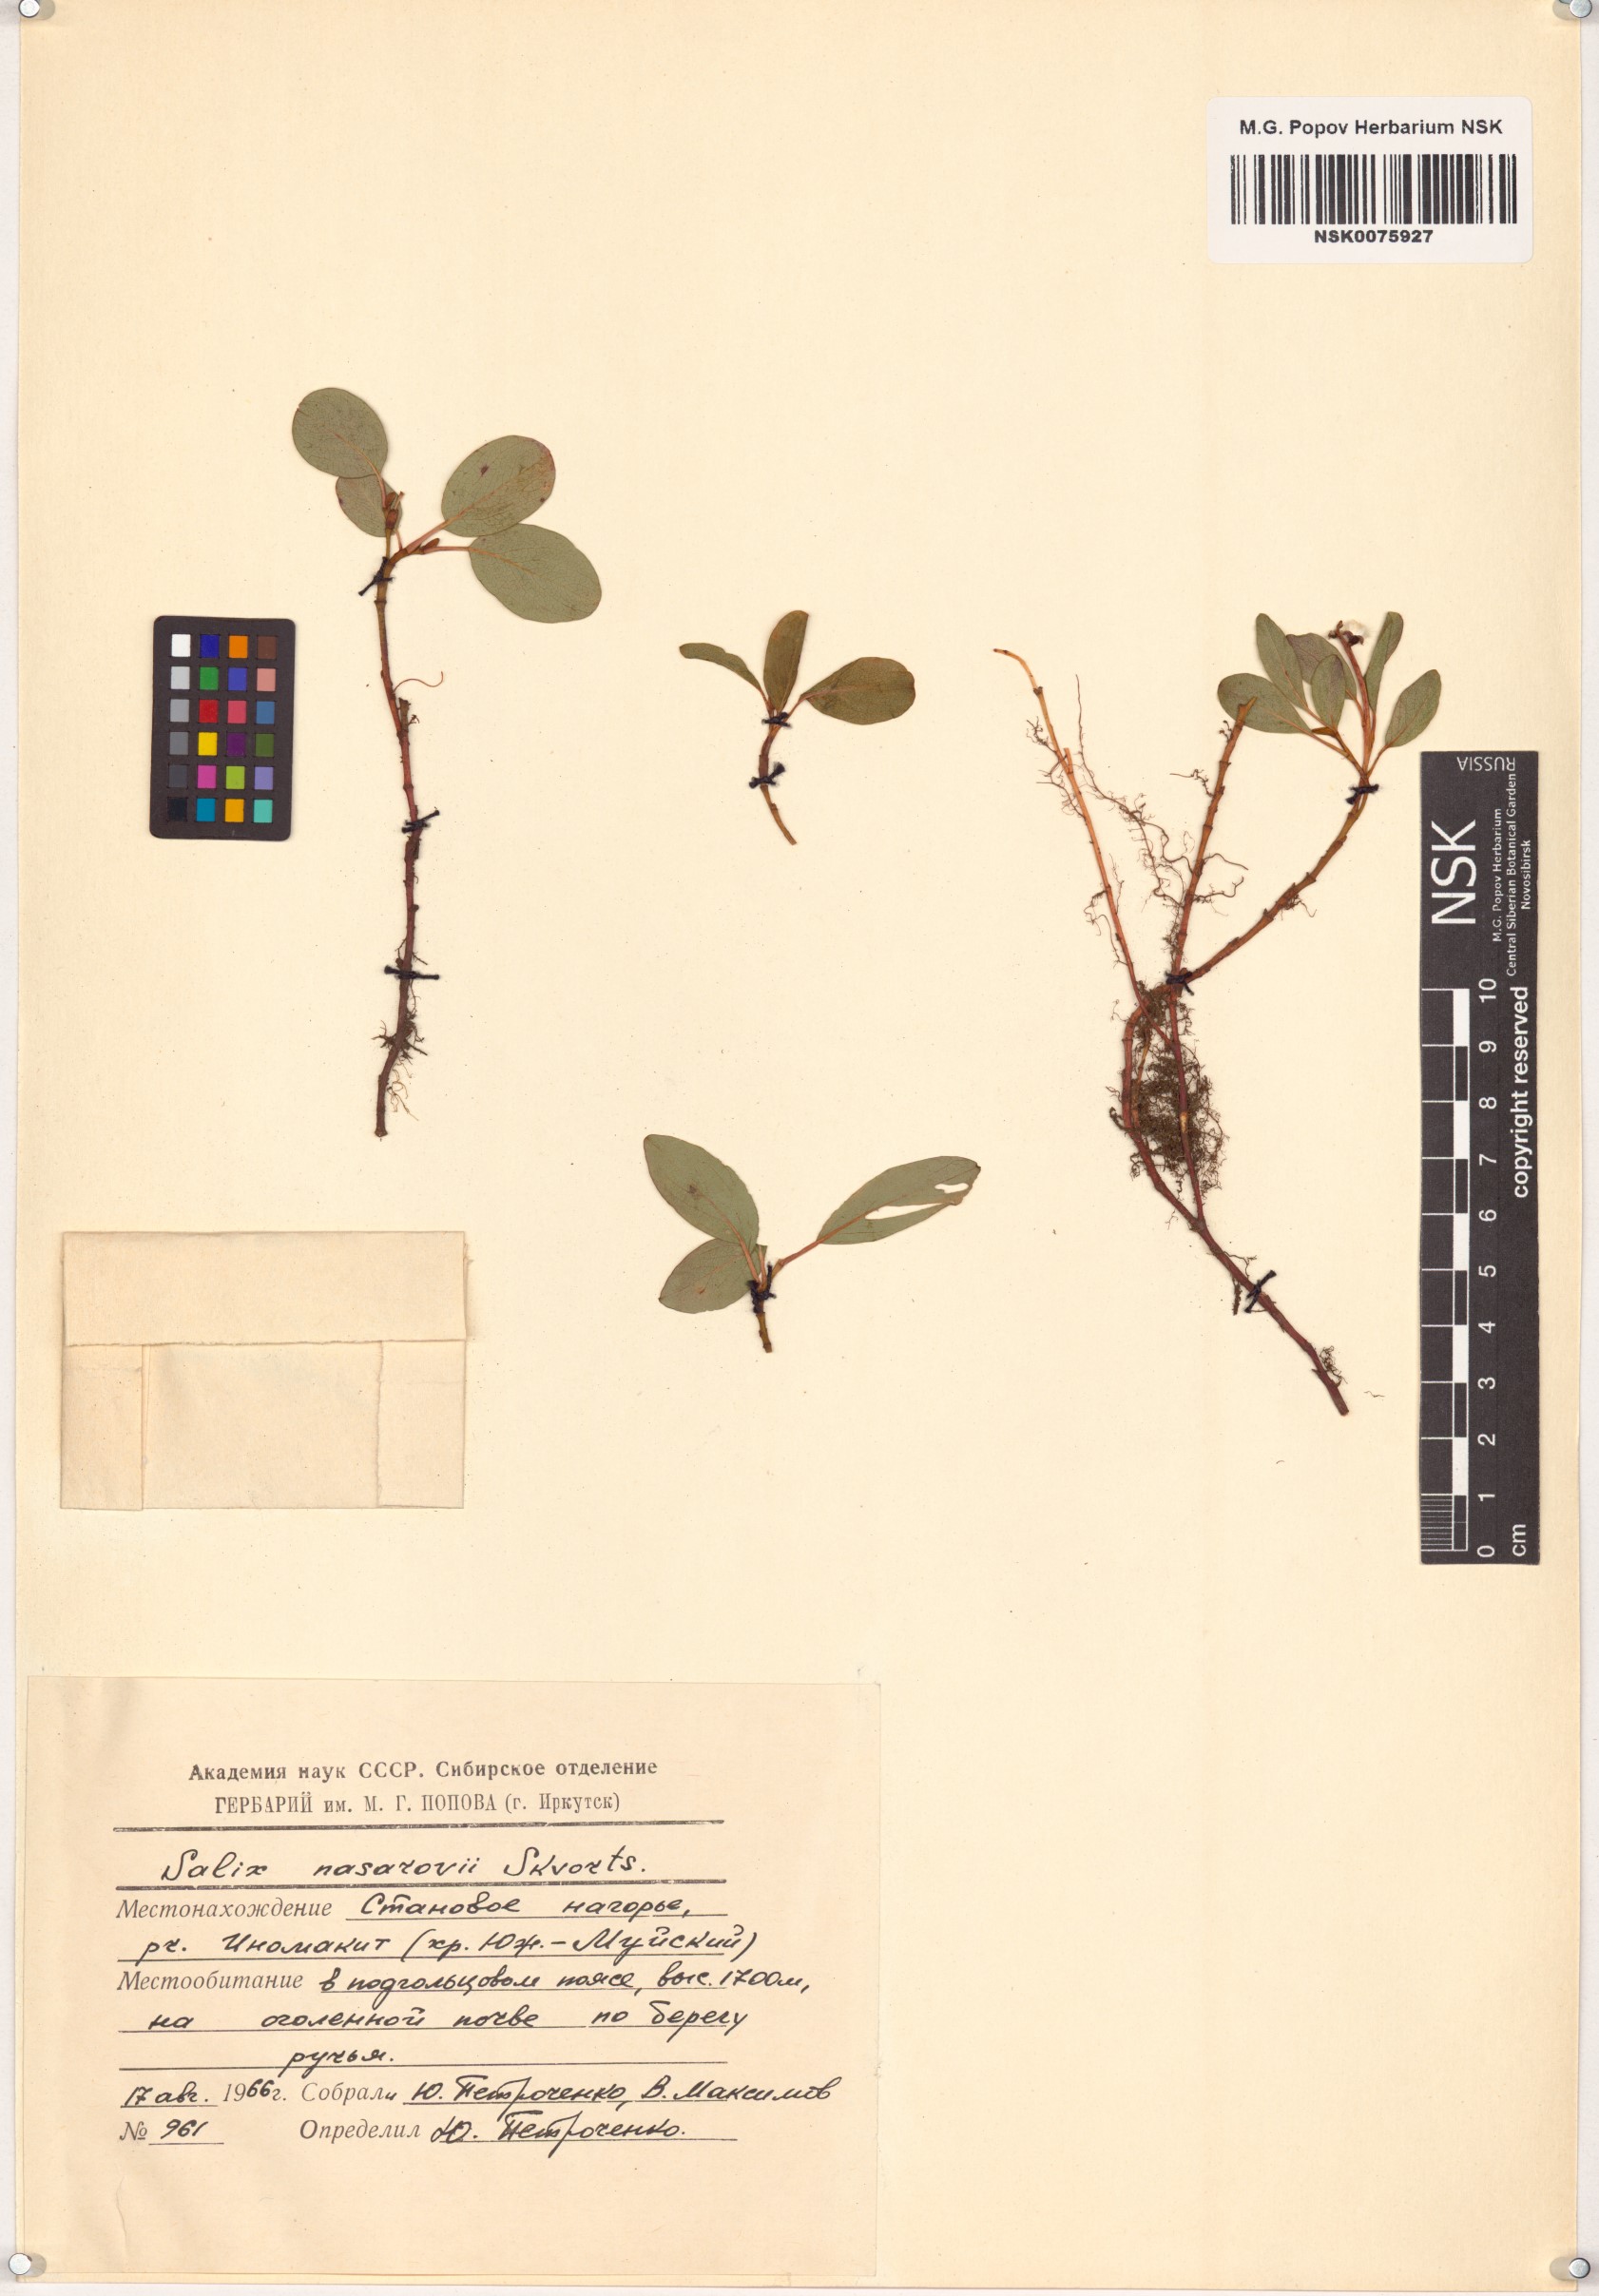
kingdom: Plantae
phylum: Tracheophyta
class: Magnoliopsida
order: Malpighiales
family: Salicaceae
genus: Salix
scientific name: Salix nasarovii
